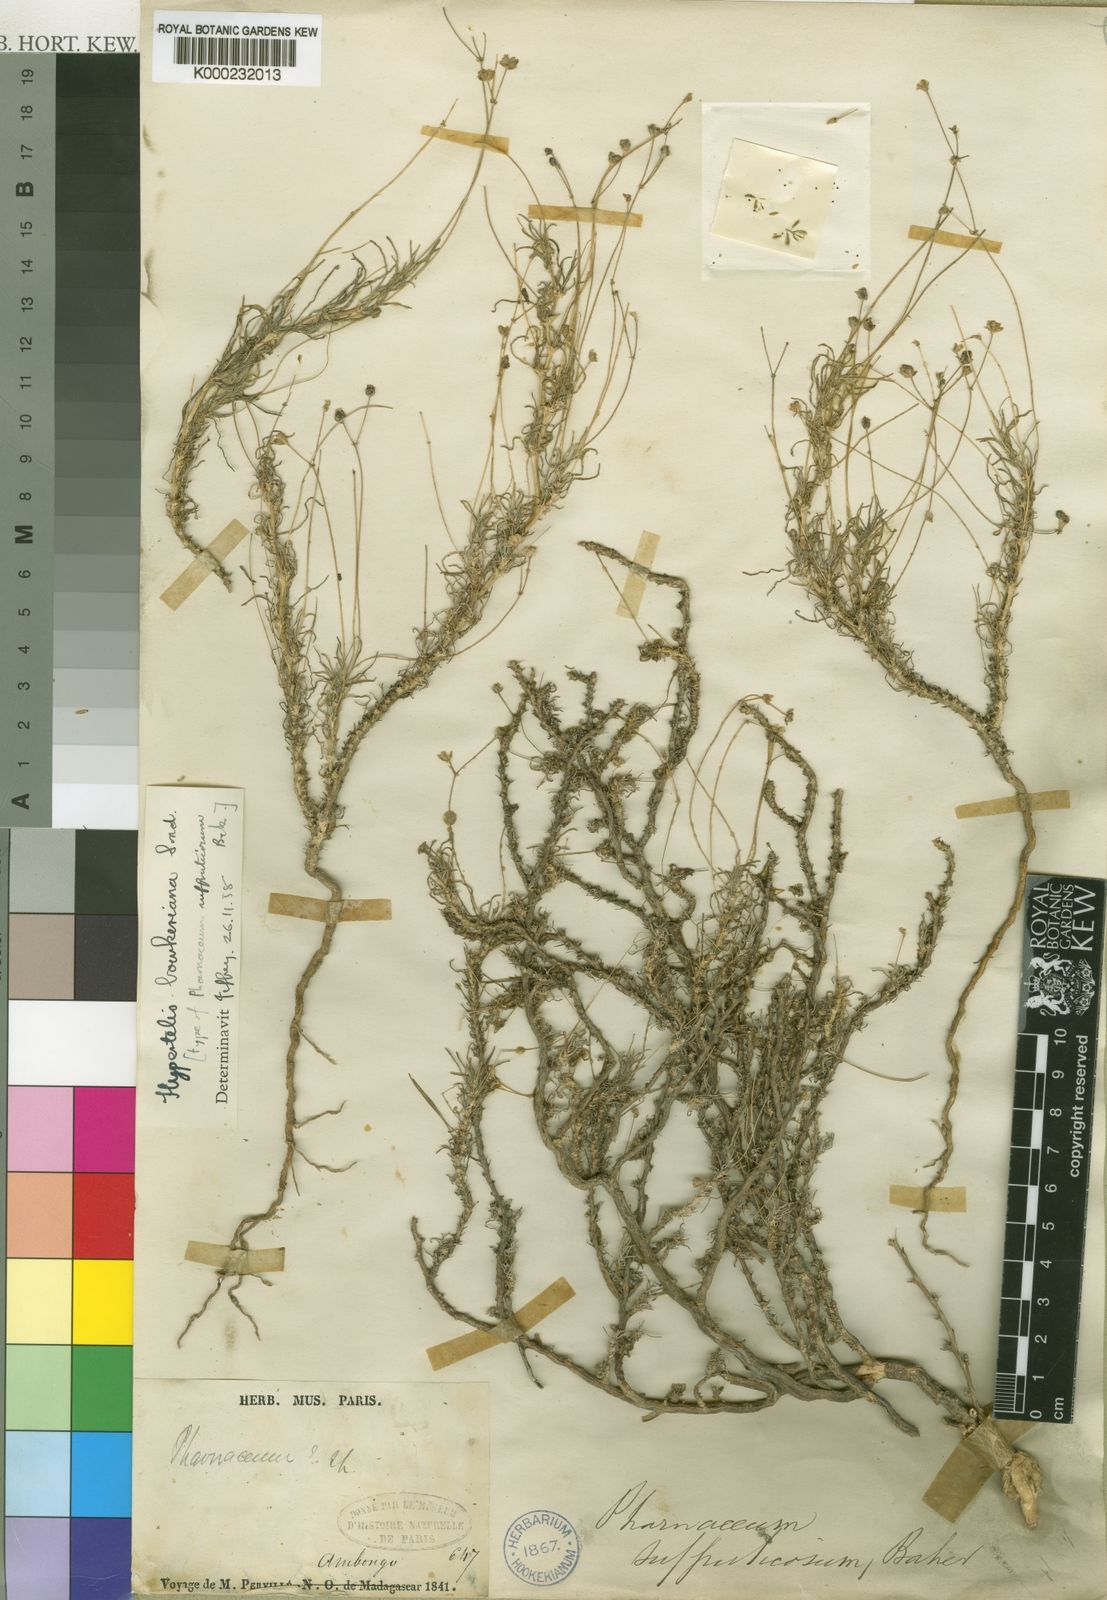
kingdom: Plantae
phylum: Tracheophyta
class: Magnoliopsida
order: Caryophyllales
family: Kewaceae
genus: Kewa
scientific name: Kewa bowkeriana
